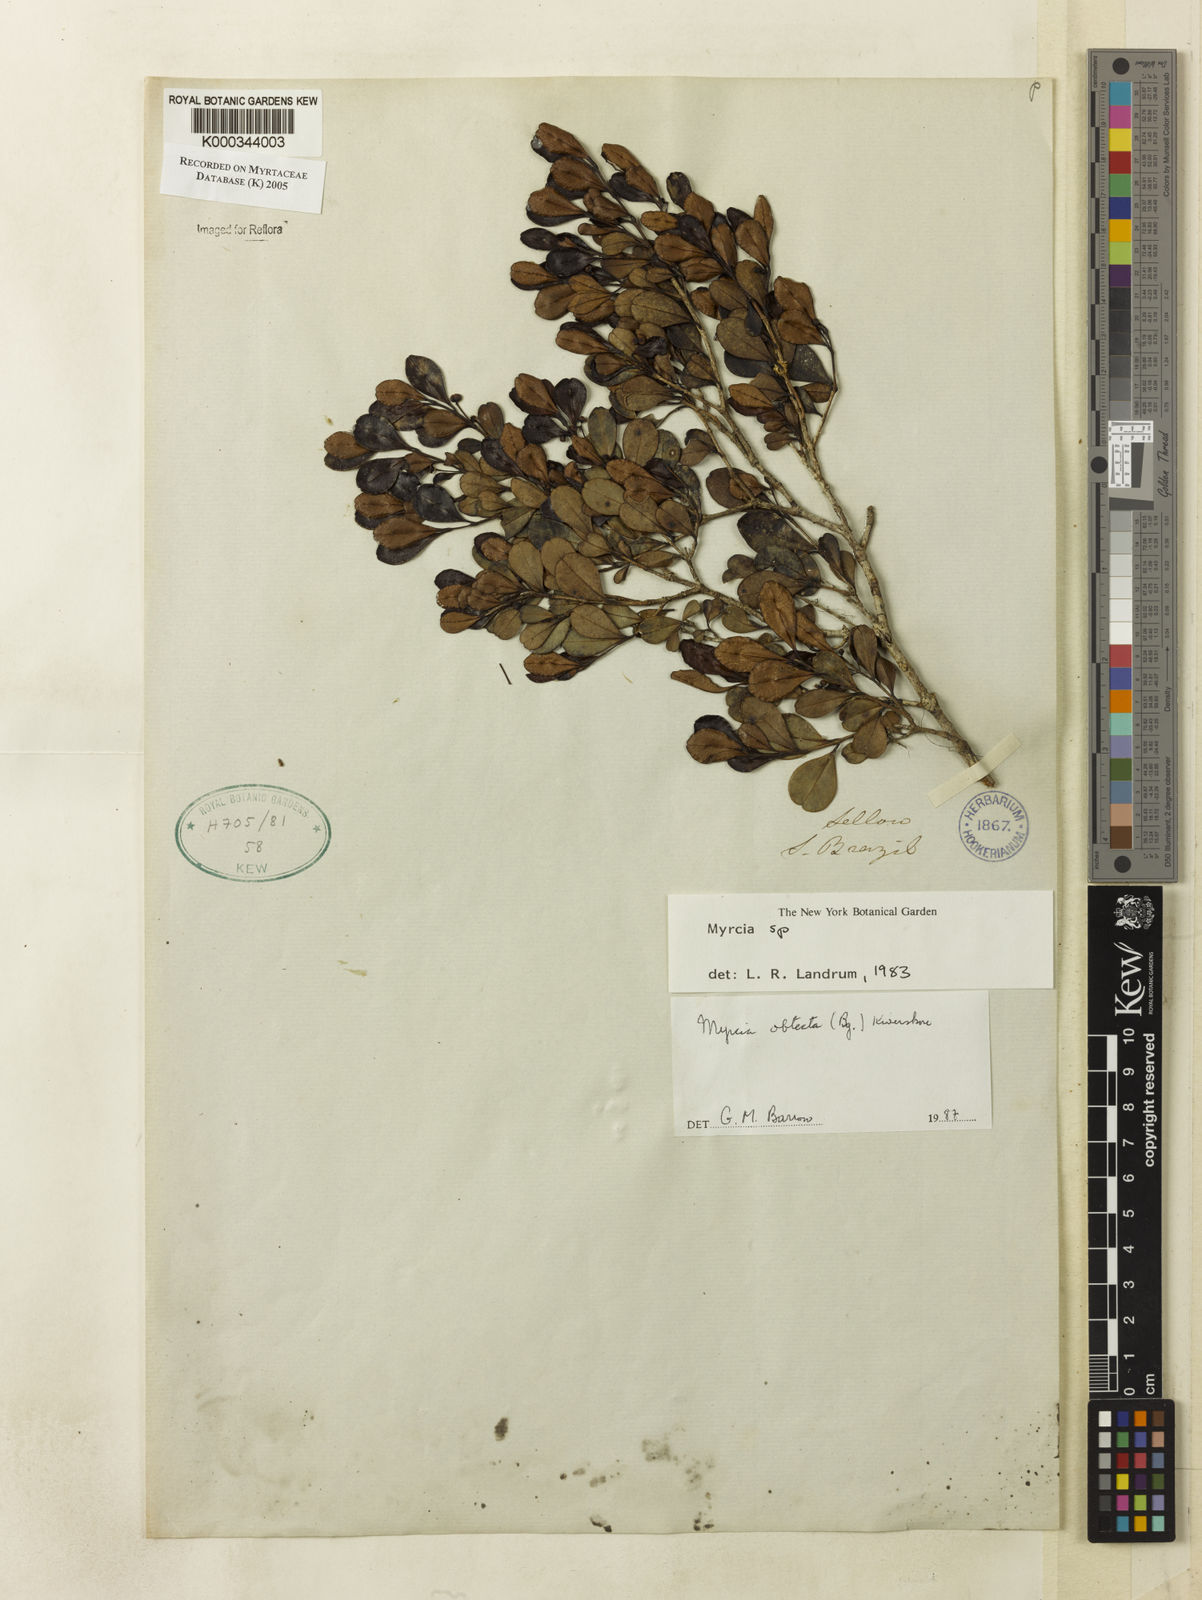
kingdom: Plantae
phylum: Tracheophyta
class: Magnoliopsida
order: Myrtales
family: Myrtaceae
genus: Myrcia
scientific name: Myrcia guianensis
